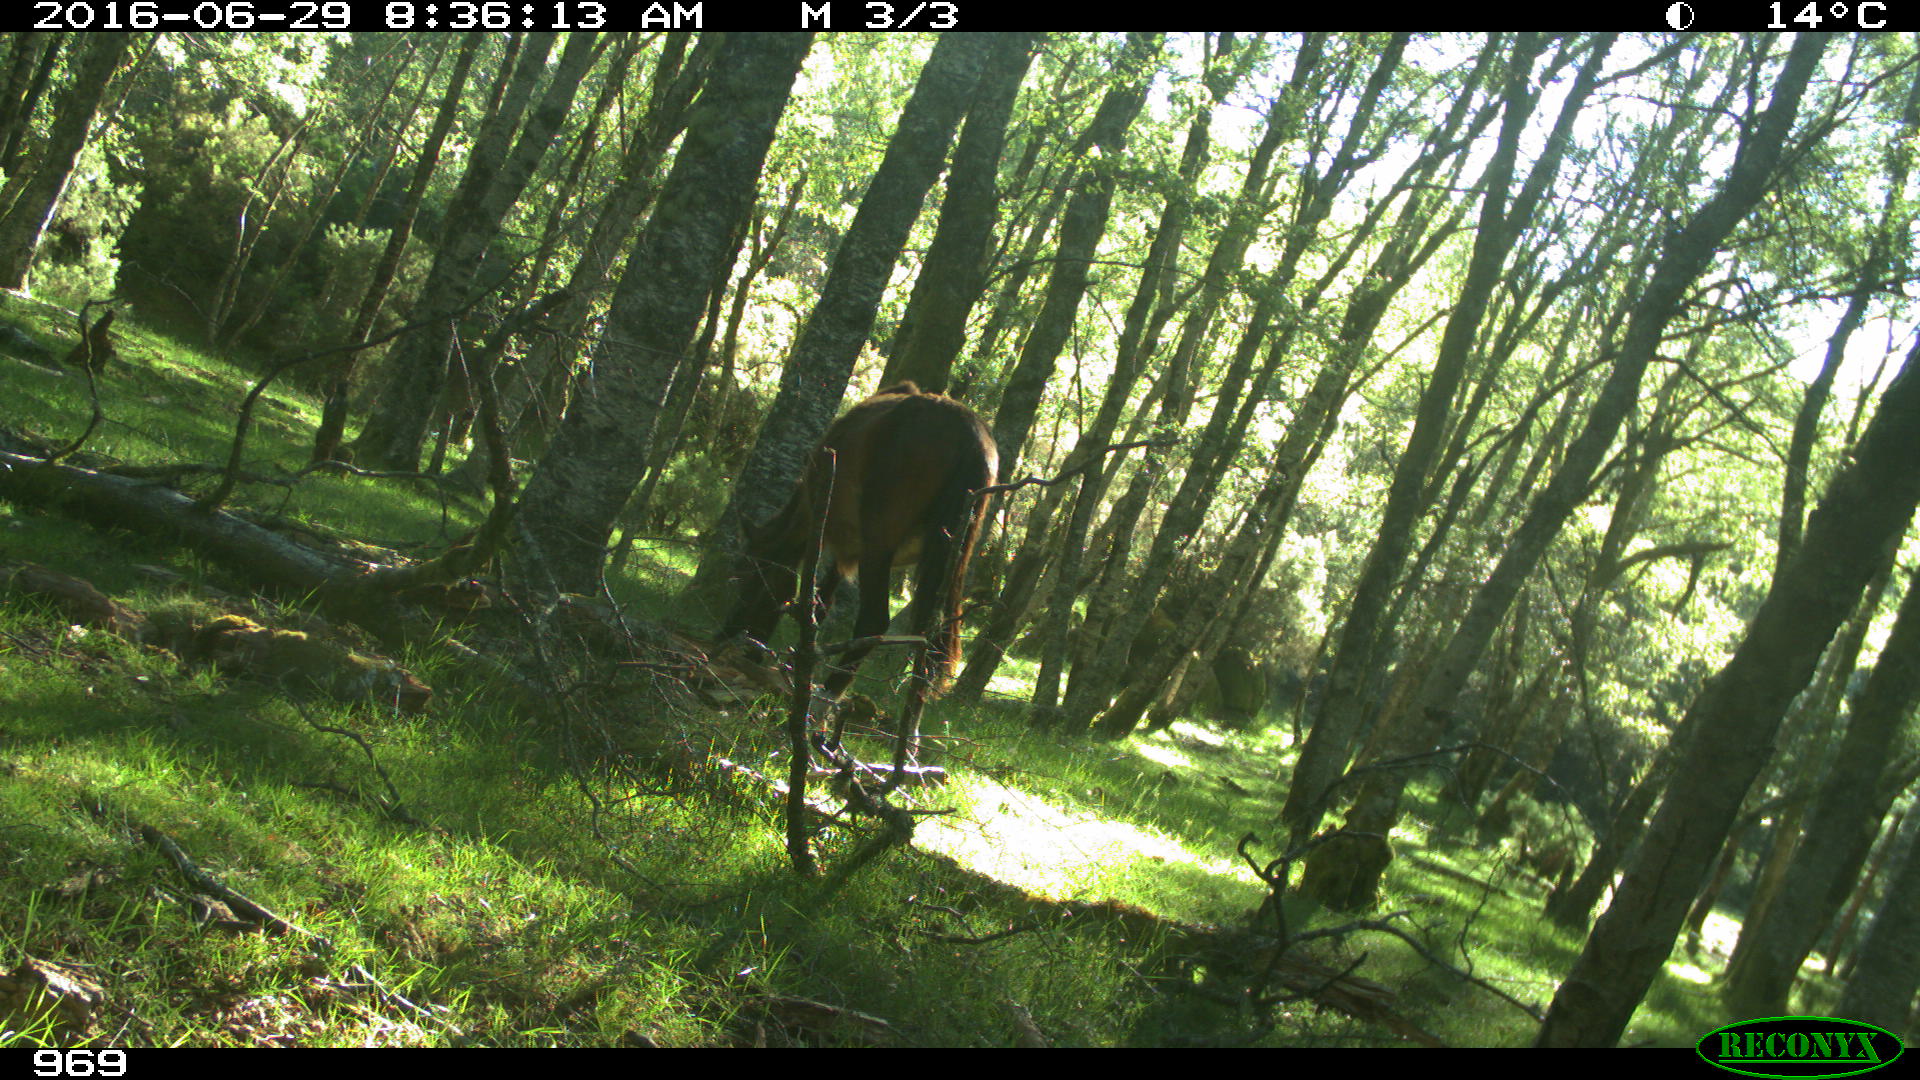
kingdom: Animalia
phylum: Chordata
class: Mammalia
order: Perissodactyla
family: Equidae
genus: Equus
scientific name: Equus caballus
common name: Horse
